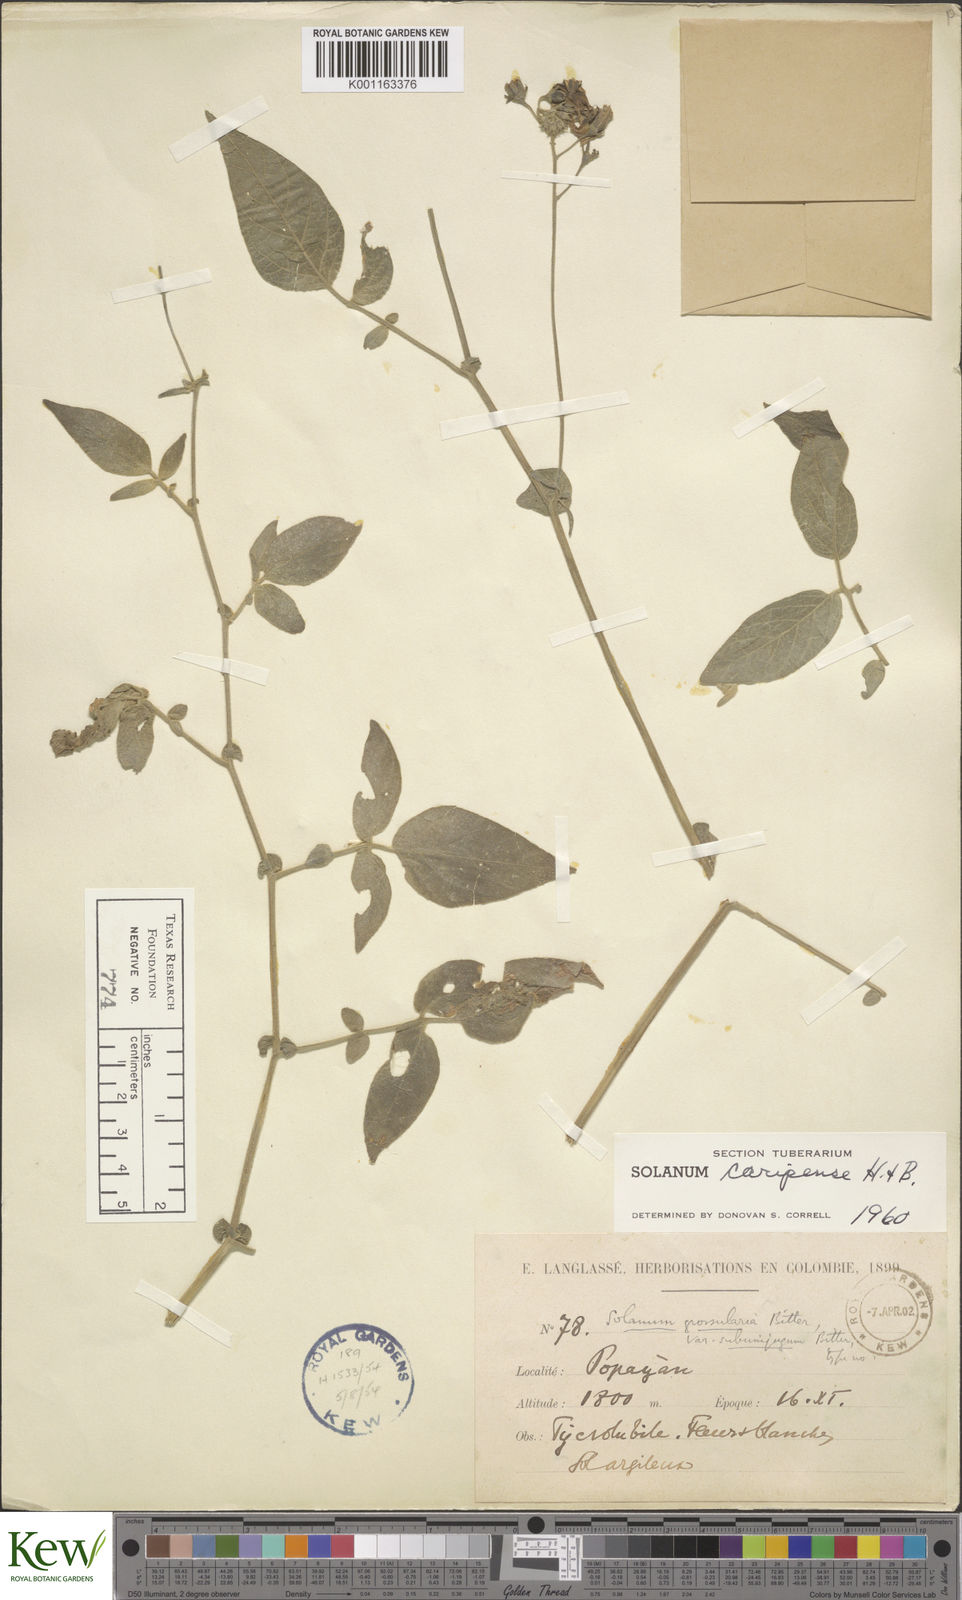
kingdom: Plantae
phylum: Tracheophyta
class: Magnoliopsida
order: Solanales
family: Solanaceae
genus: Solanum
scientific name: Solanum caripense
